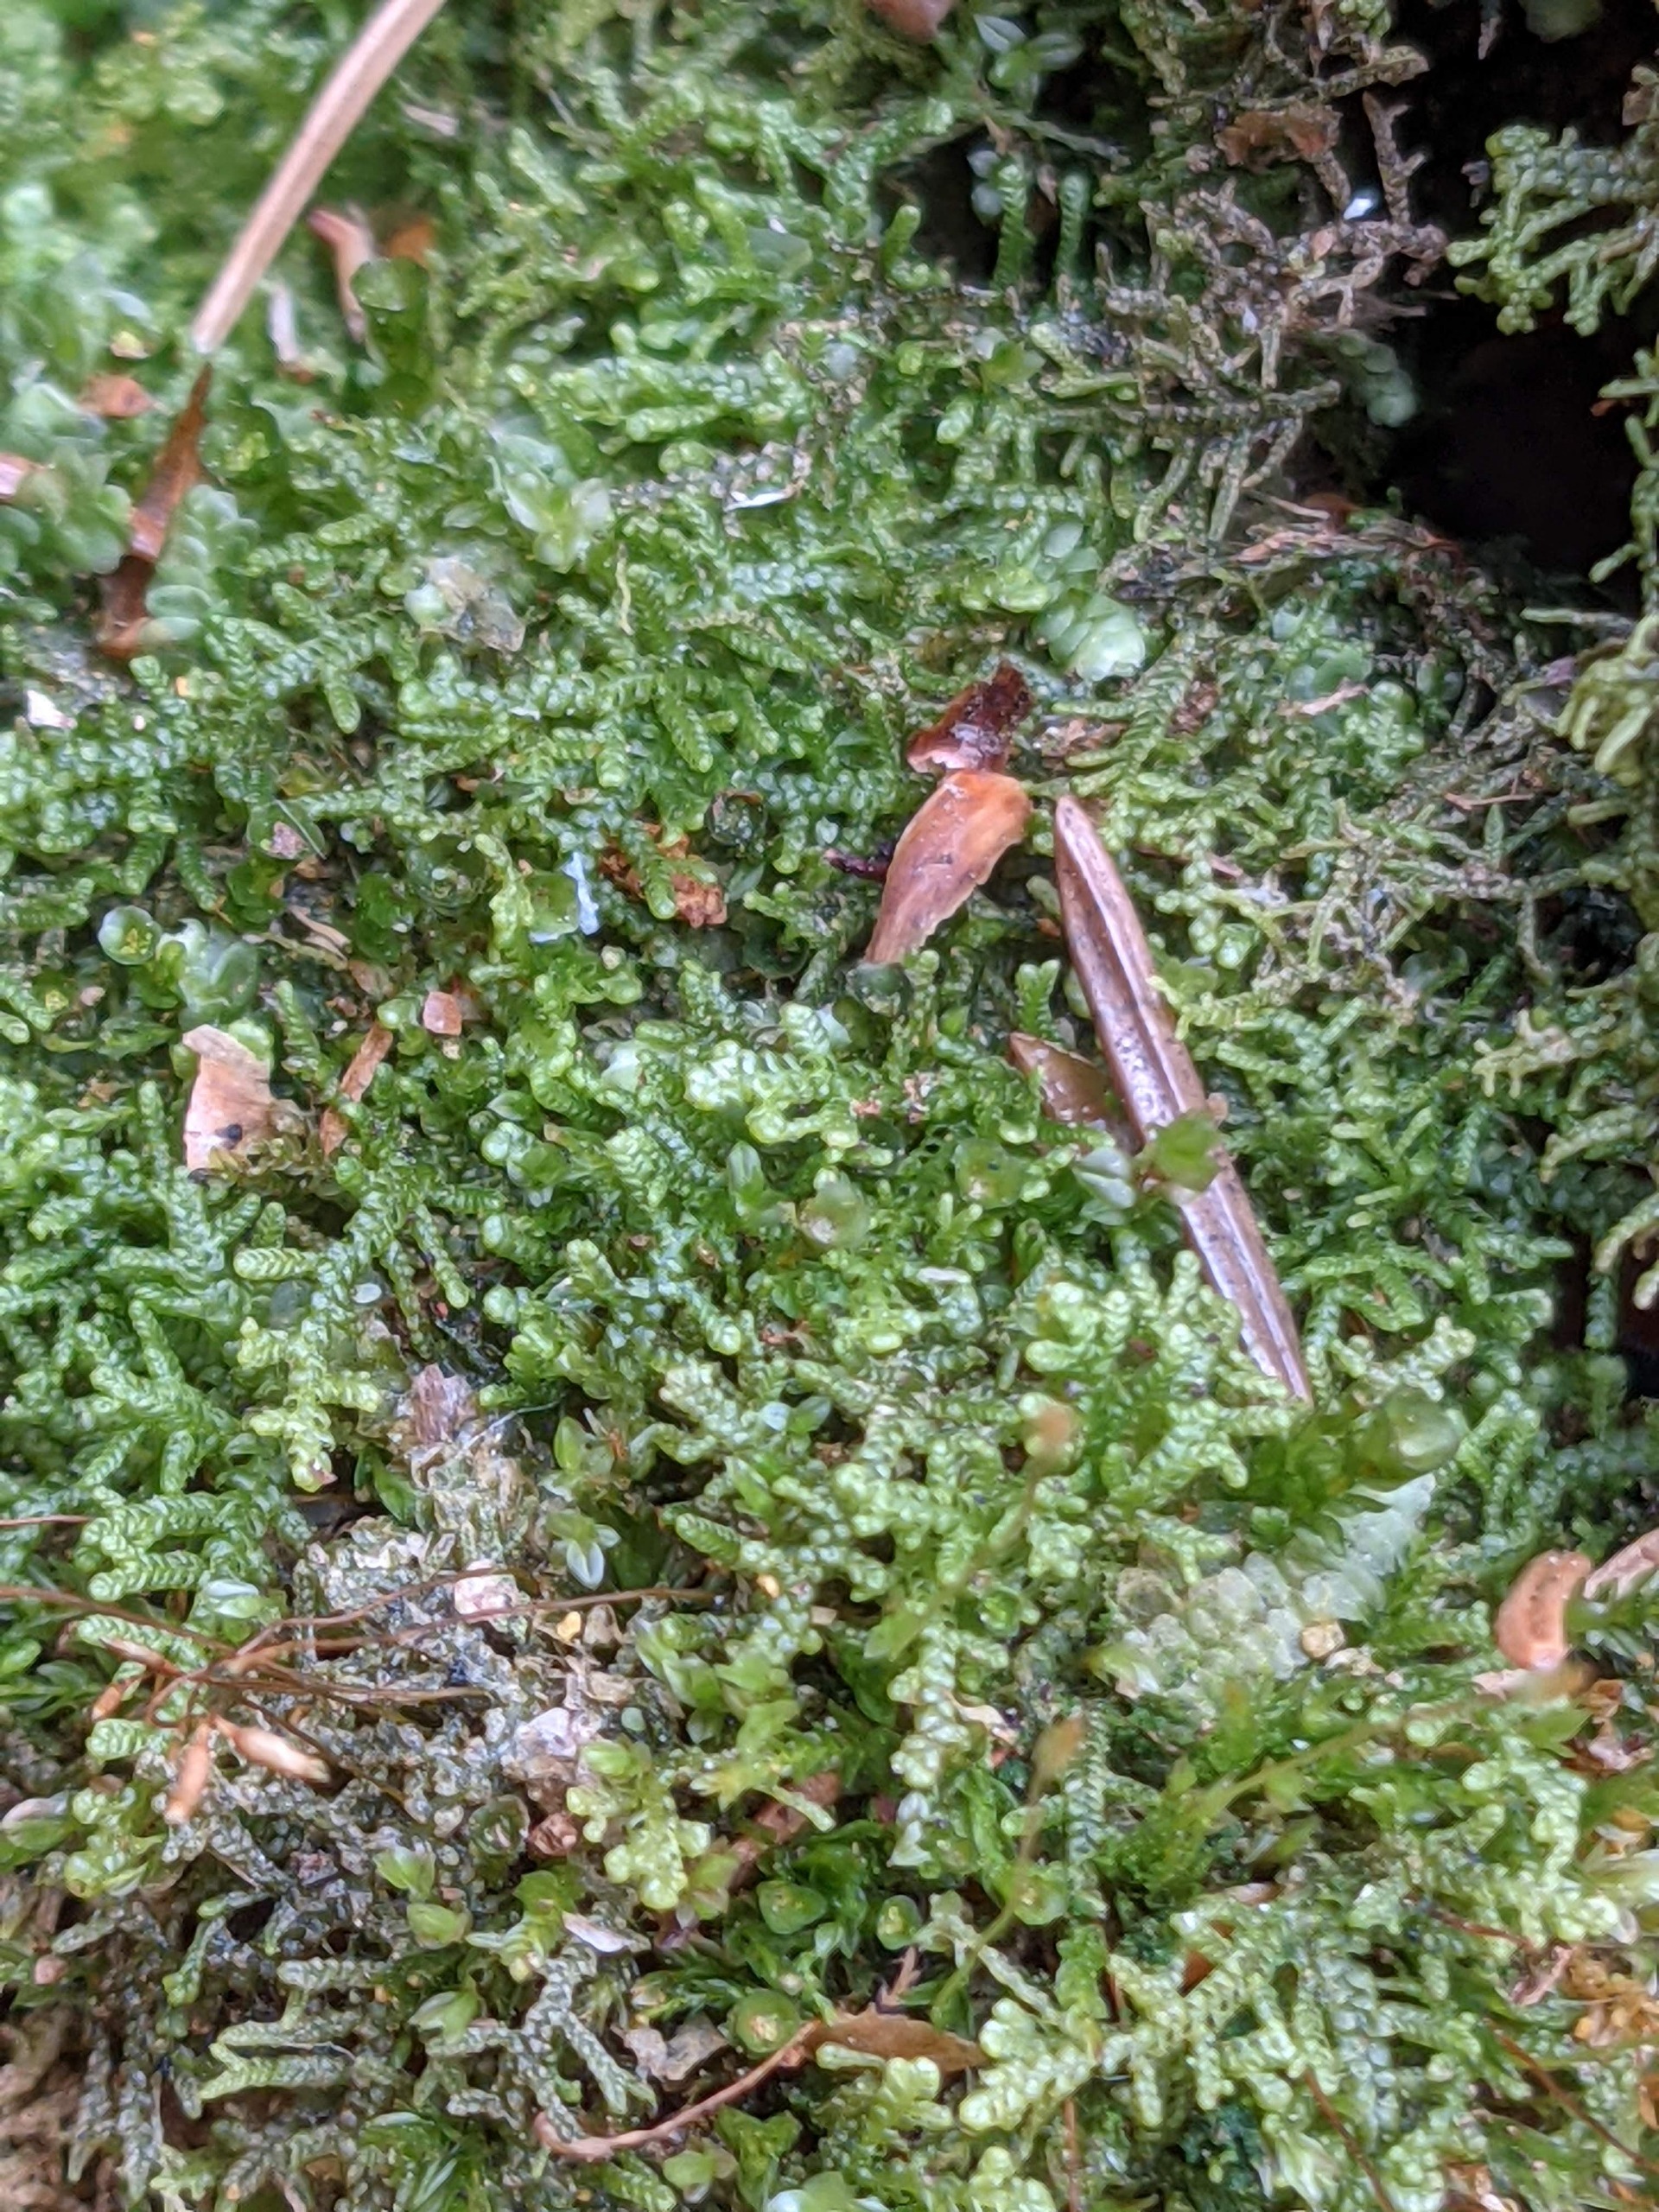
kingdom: Plantae
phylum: Marchantiophyta
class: Jungermanniopsida
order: Jungermanniales
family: Lepidoziaceae
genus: Lepidozia
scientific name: Lepidozia reptans
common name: Krybende fingermos
